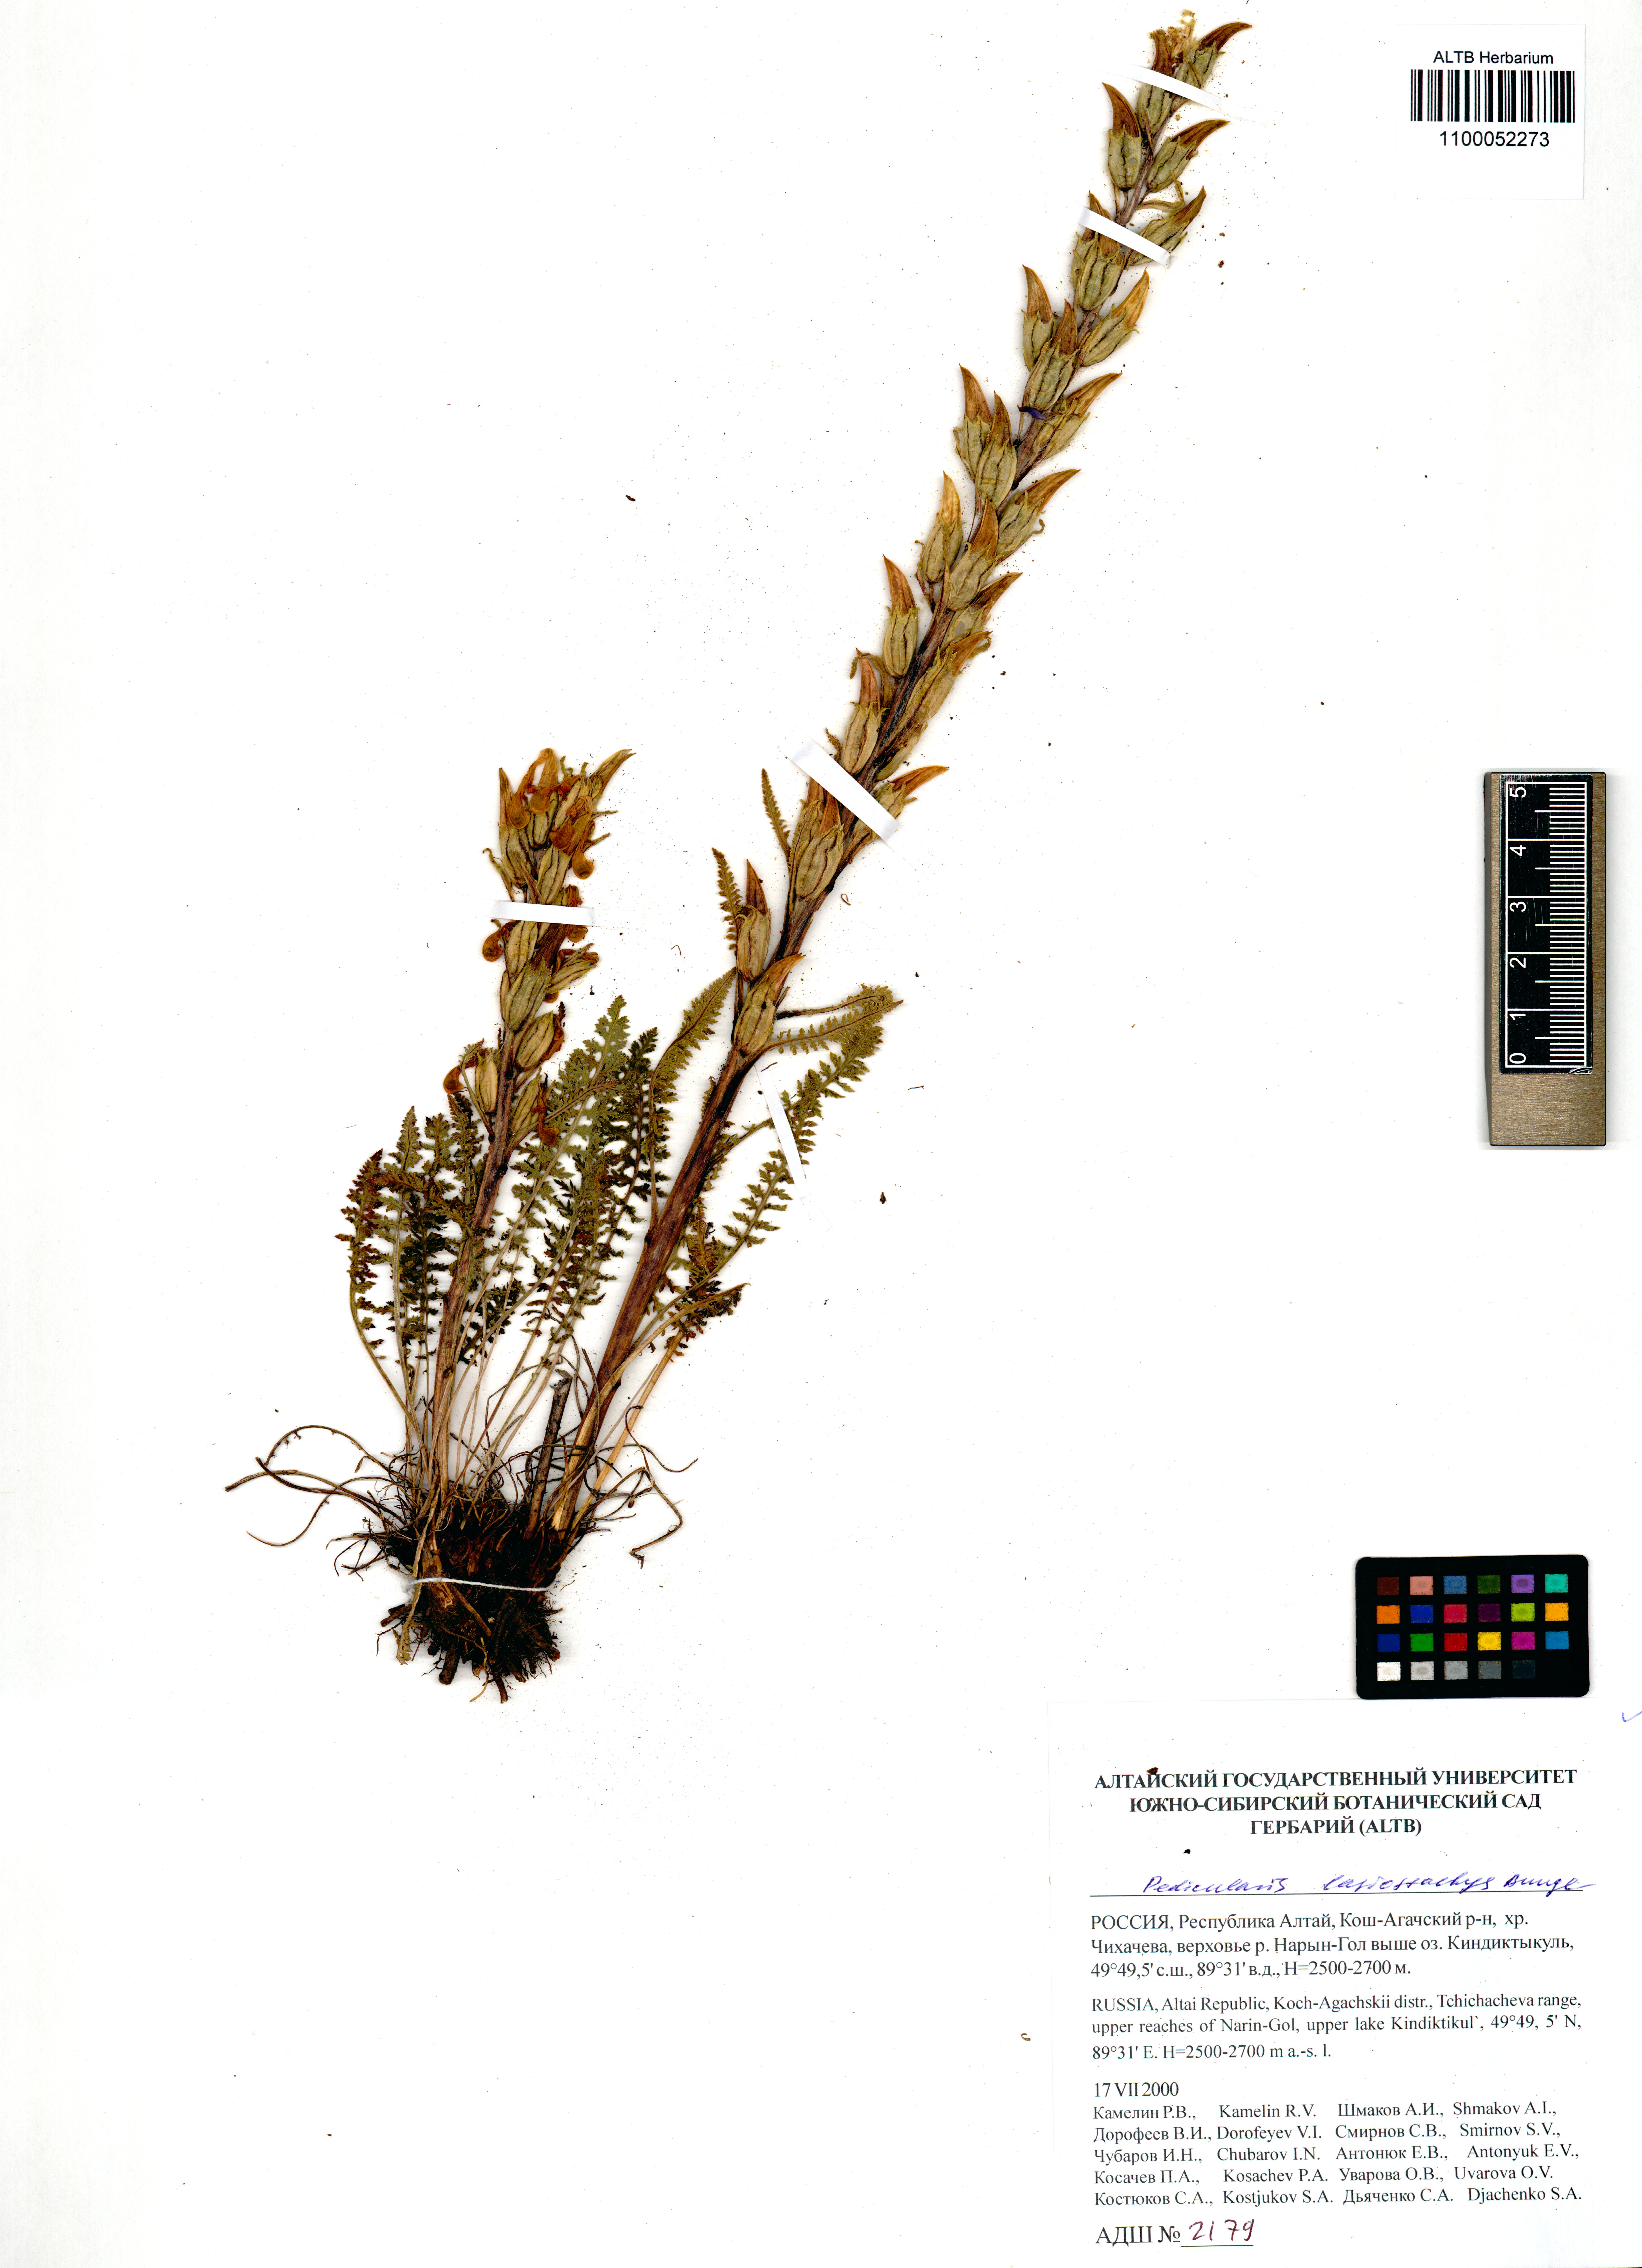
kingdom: Plantae
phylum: Tracheophyta
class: Magnoliopsida
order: Lamiales
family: Orobanchaceae
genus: Pedicularis
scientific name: Pedicularis lasiostachys
